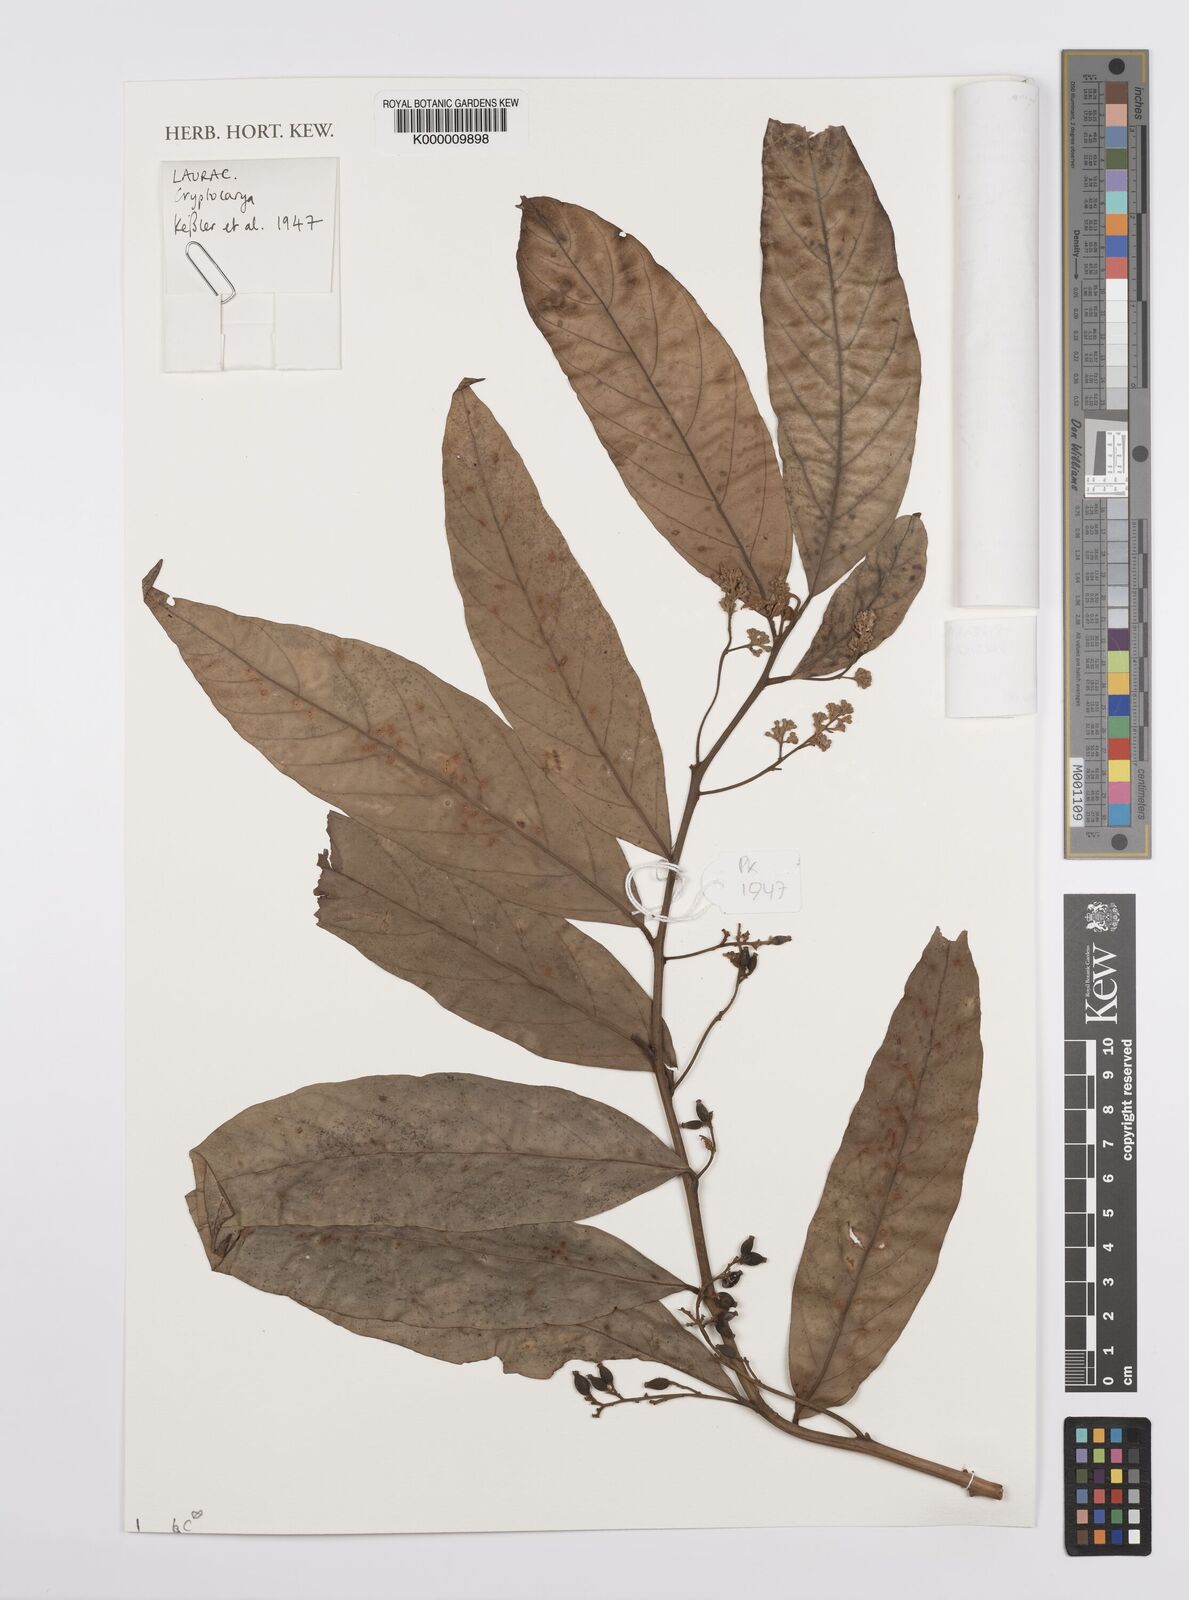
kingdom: Plantae
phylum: Tracheophyta
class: Magnoliopsida
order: Laurales
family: Lauraceae
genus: Cryptocarya
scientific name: Cryptocarya
